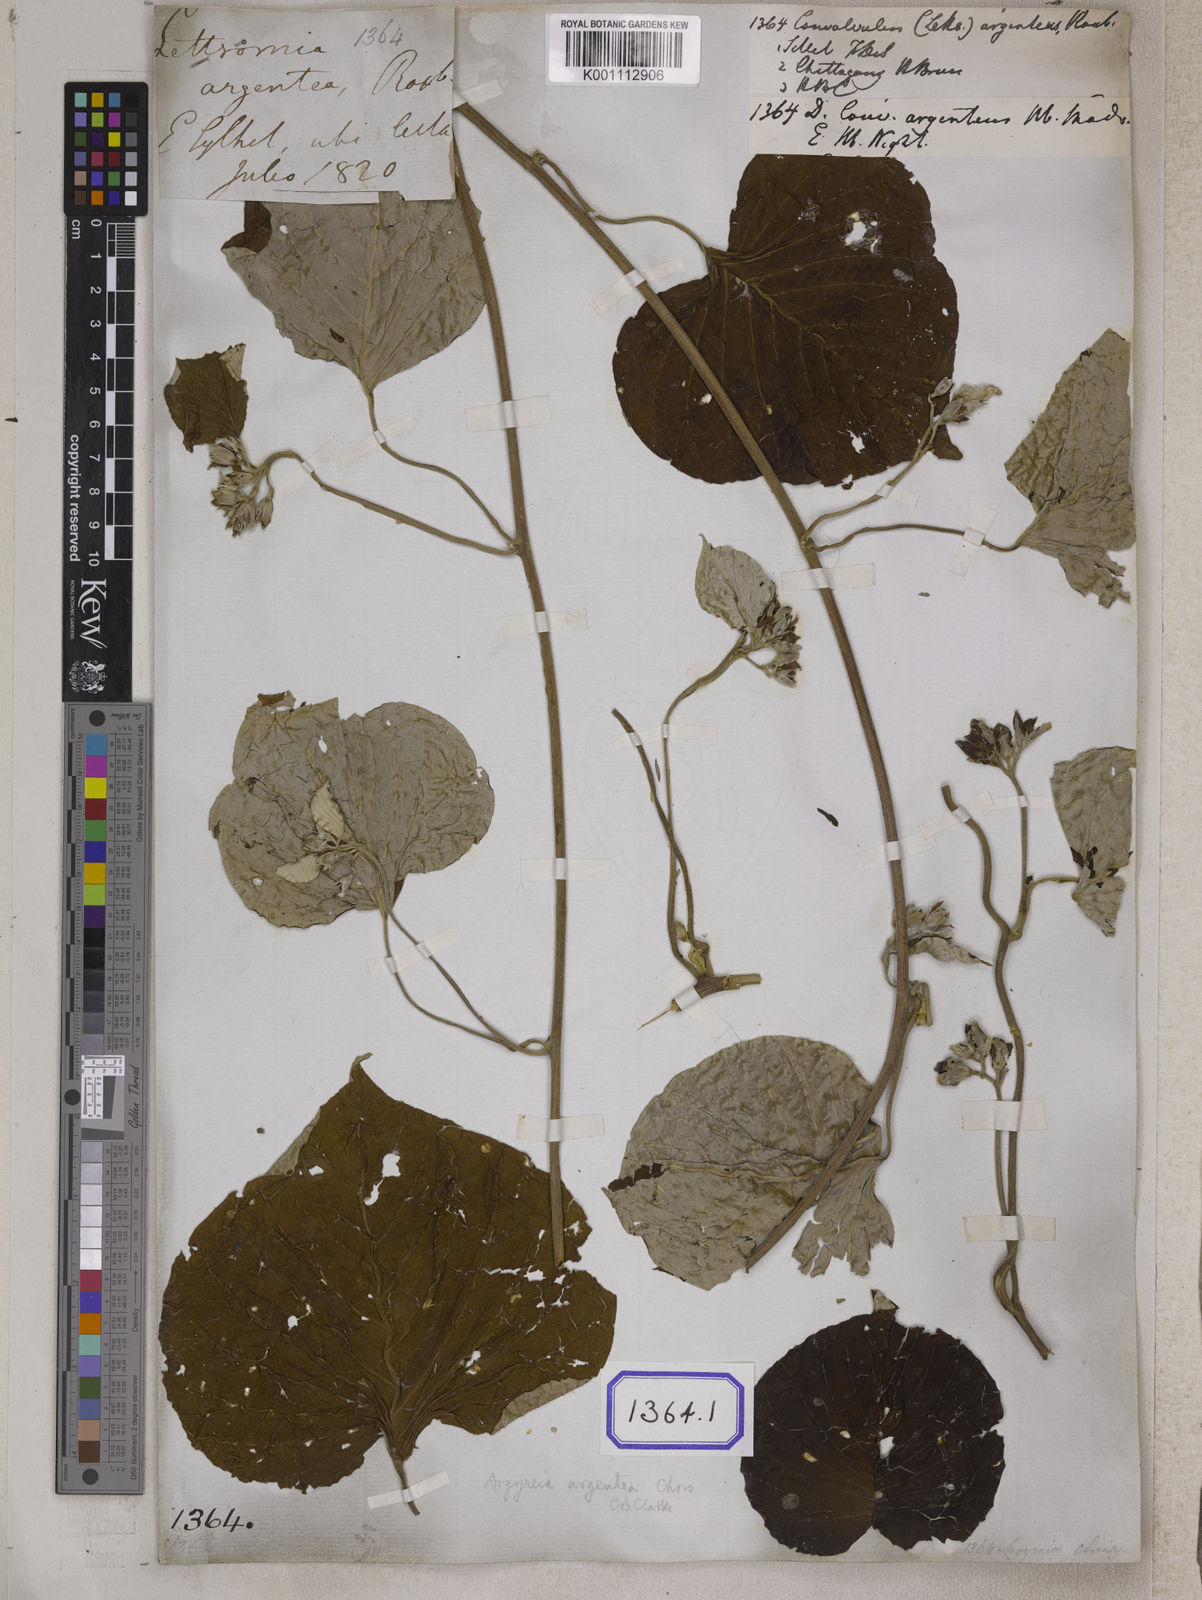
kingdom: Plantae
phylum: Tracheophyta
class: Magnoliopsida
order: Solanales
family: Convolvulaceae
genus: Convolvulus
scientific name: Convolvulus
